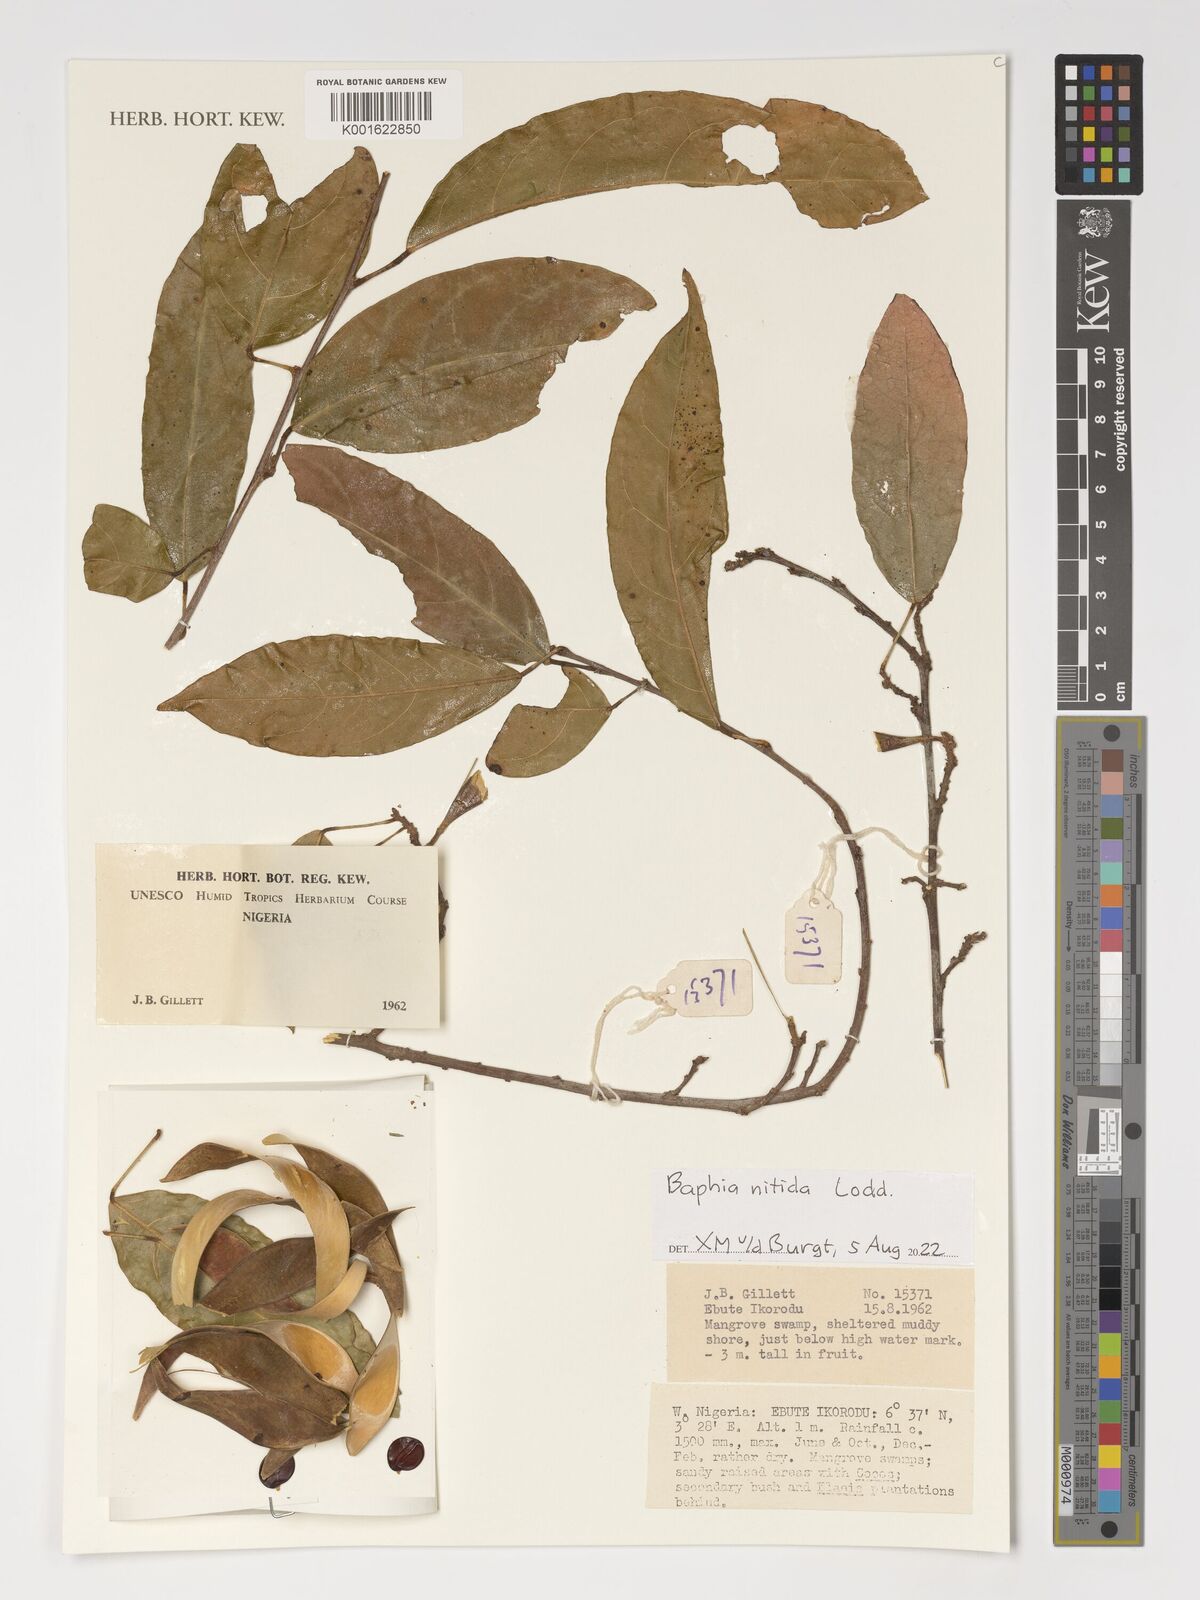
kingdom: Plantae
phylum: Tracheophyta
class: Magnoliopsida
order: Fabales
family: Fabaceae
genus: Baphia
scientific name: Baphia nitida
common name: Camwood
